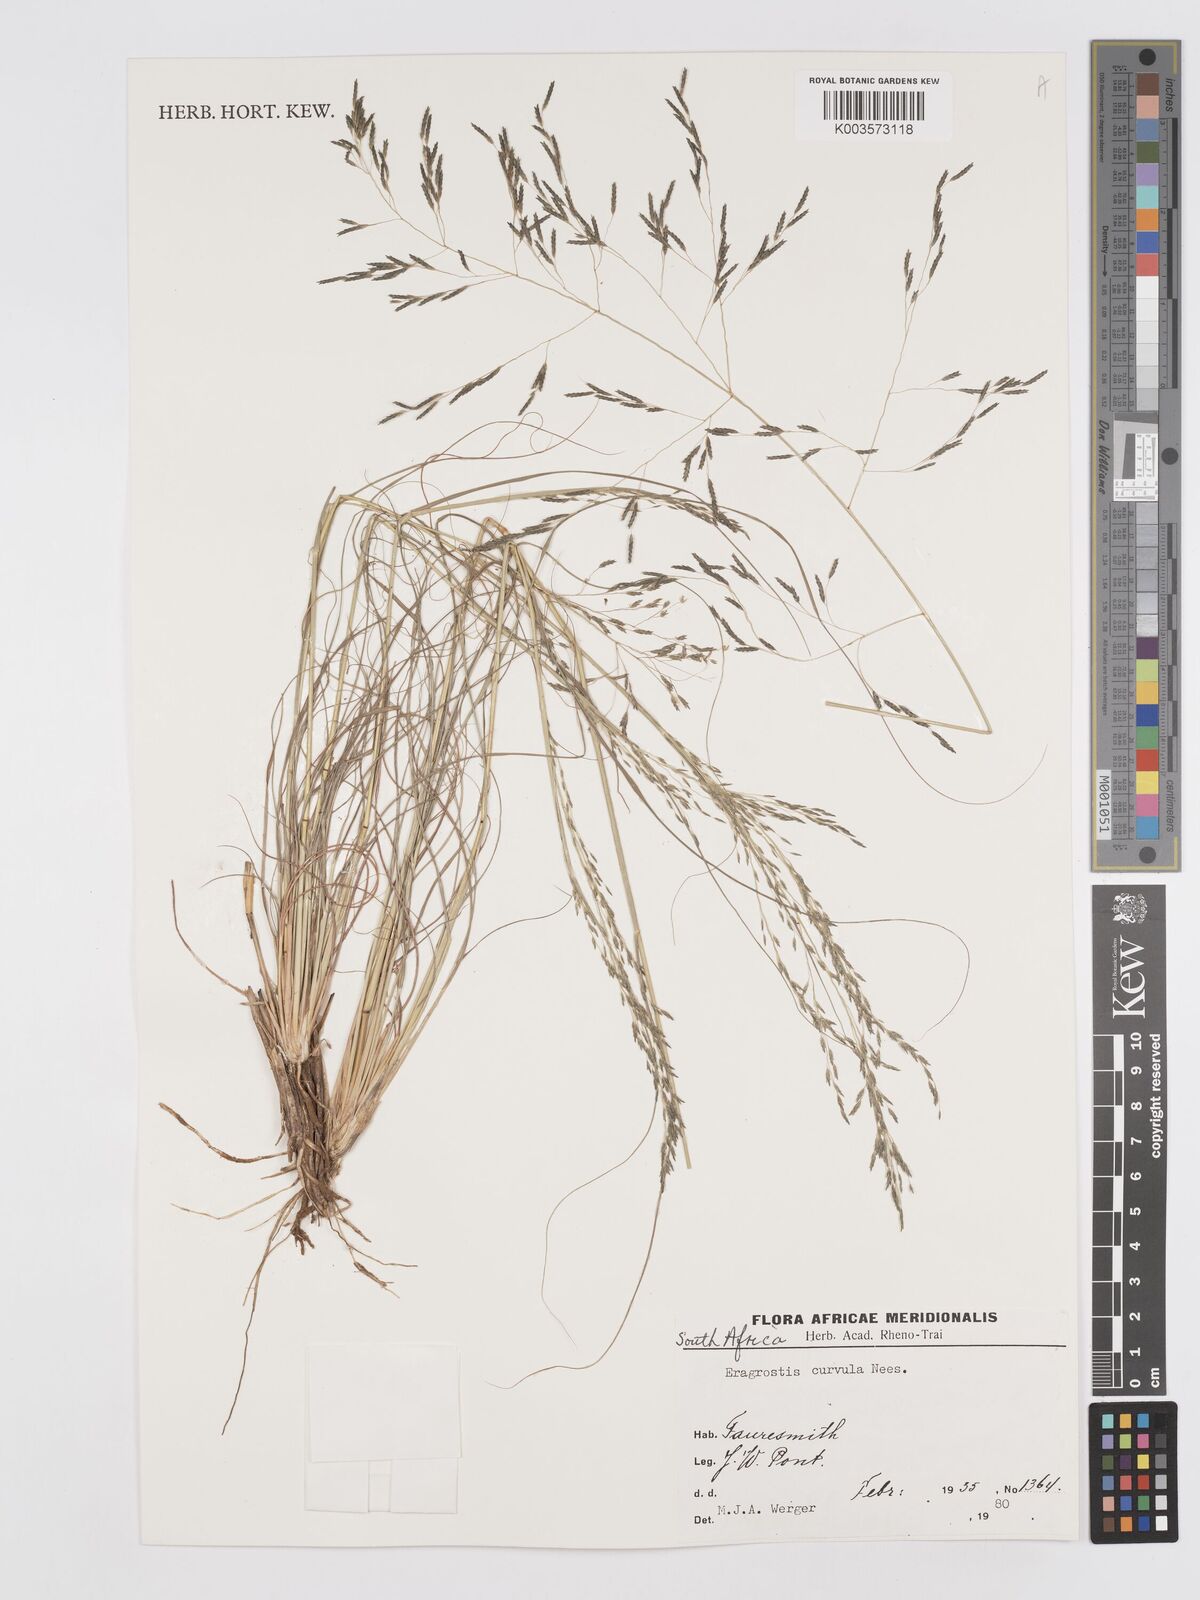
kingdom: Plantae
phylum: Tracheophyta
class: Liliopsida
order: Poales
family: Poaceae
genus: Eragrostis
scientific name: Eragrostis curvula
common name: African love-grass
